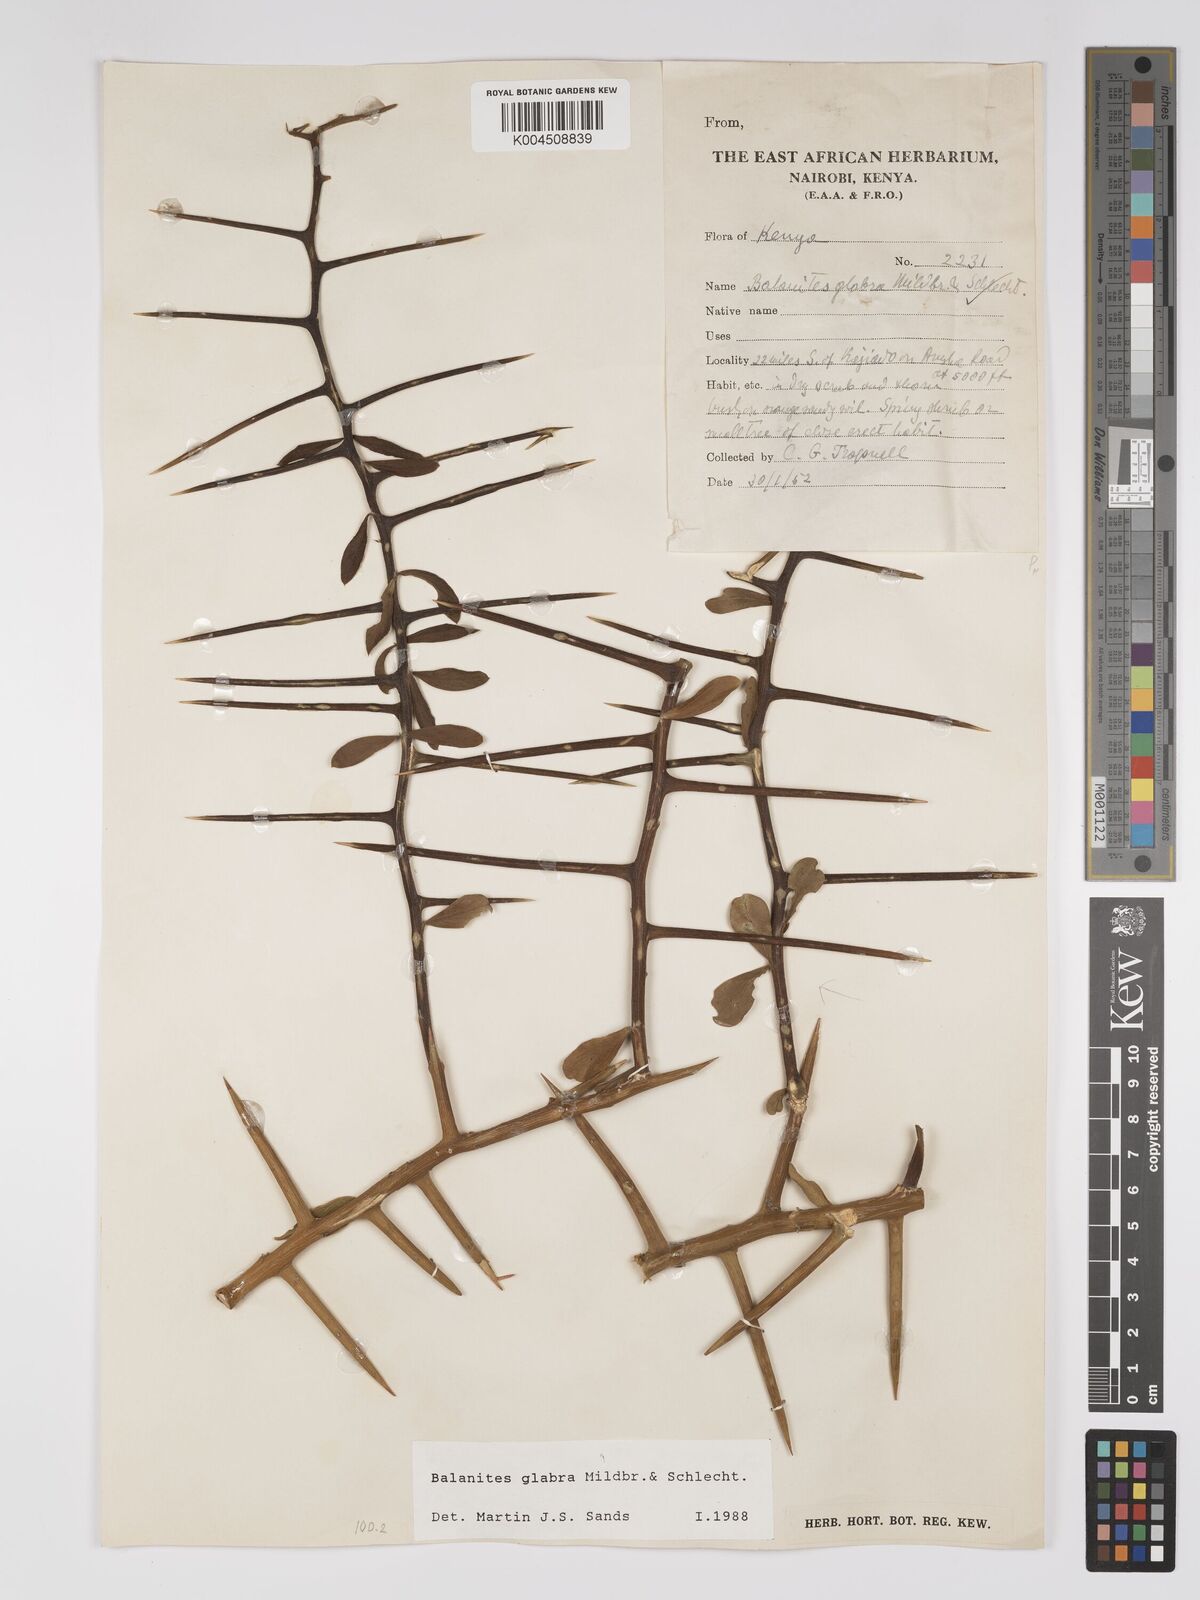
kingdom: Plantae
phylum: Tracheophyta
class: Magnoliopsida
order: Zygophyllales
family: Zygophyllaceae
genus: Balanites
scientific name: Balanites glabra
